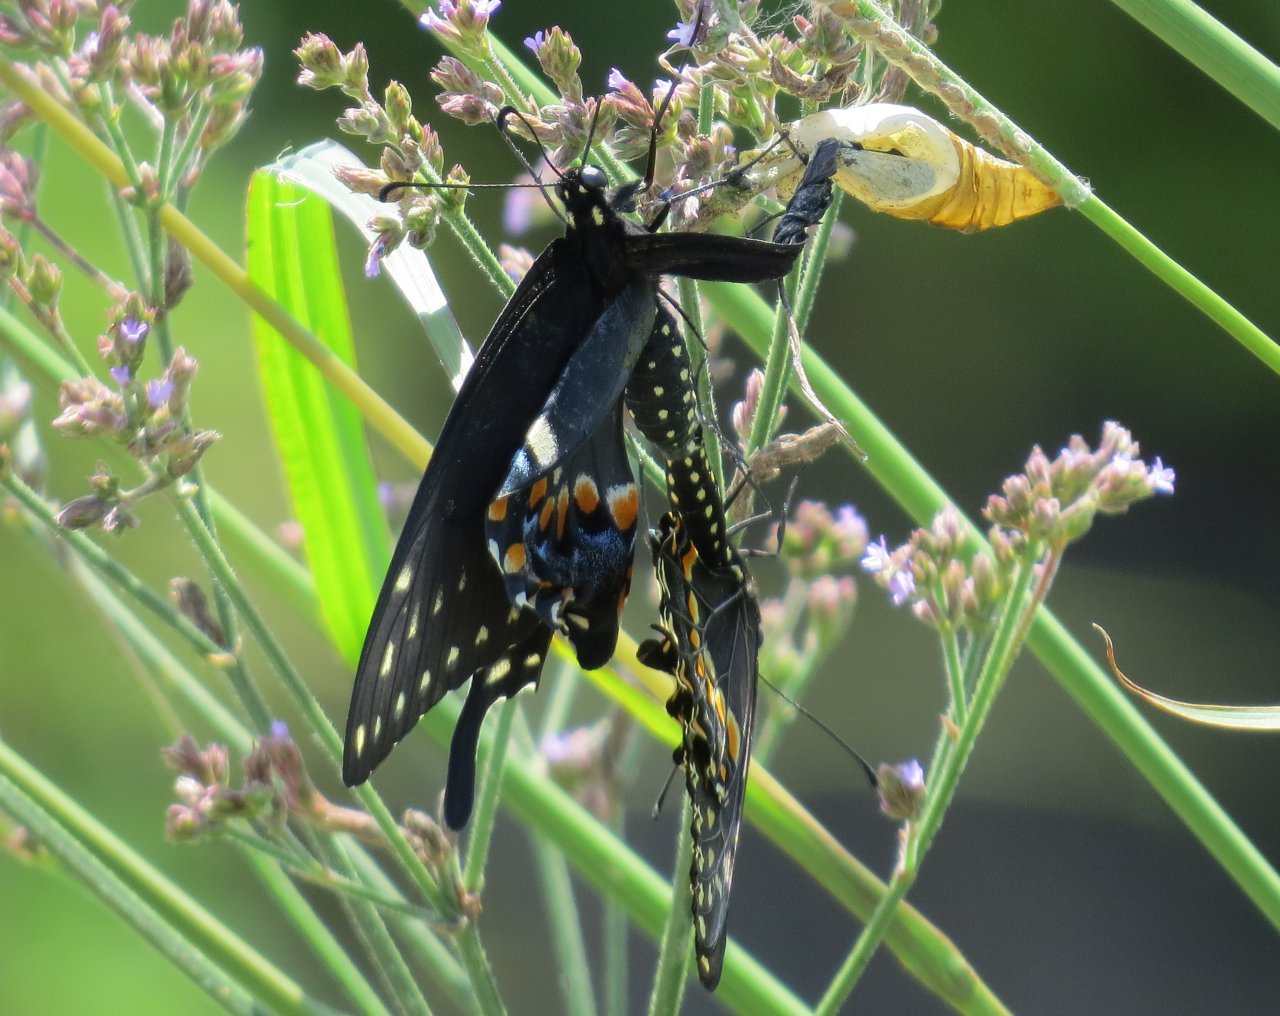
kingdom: Animalia
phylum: Arthropoda
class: Insecta
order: Lepidoptera
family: Papilionidae
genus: Papilio
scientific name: Papilio polyxenes
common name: Black Swallowtail
